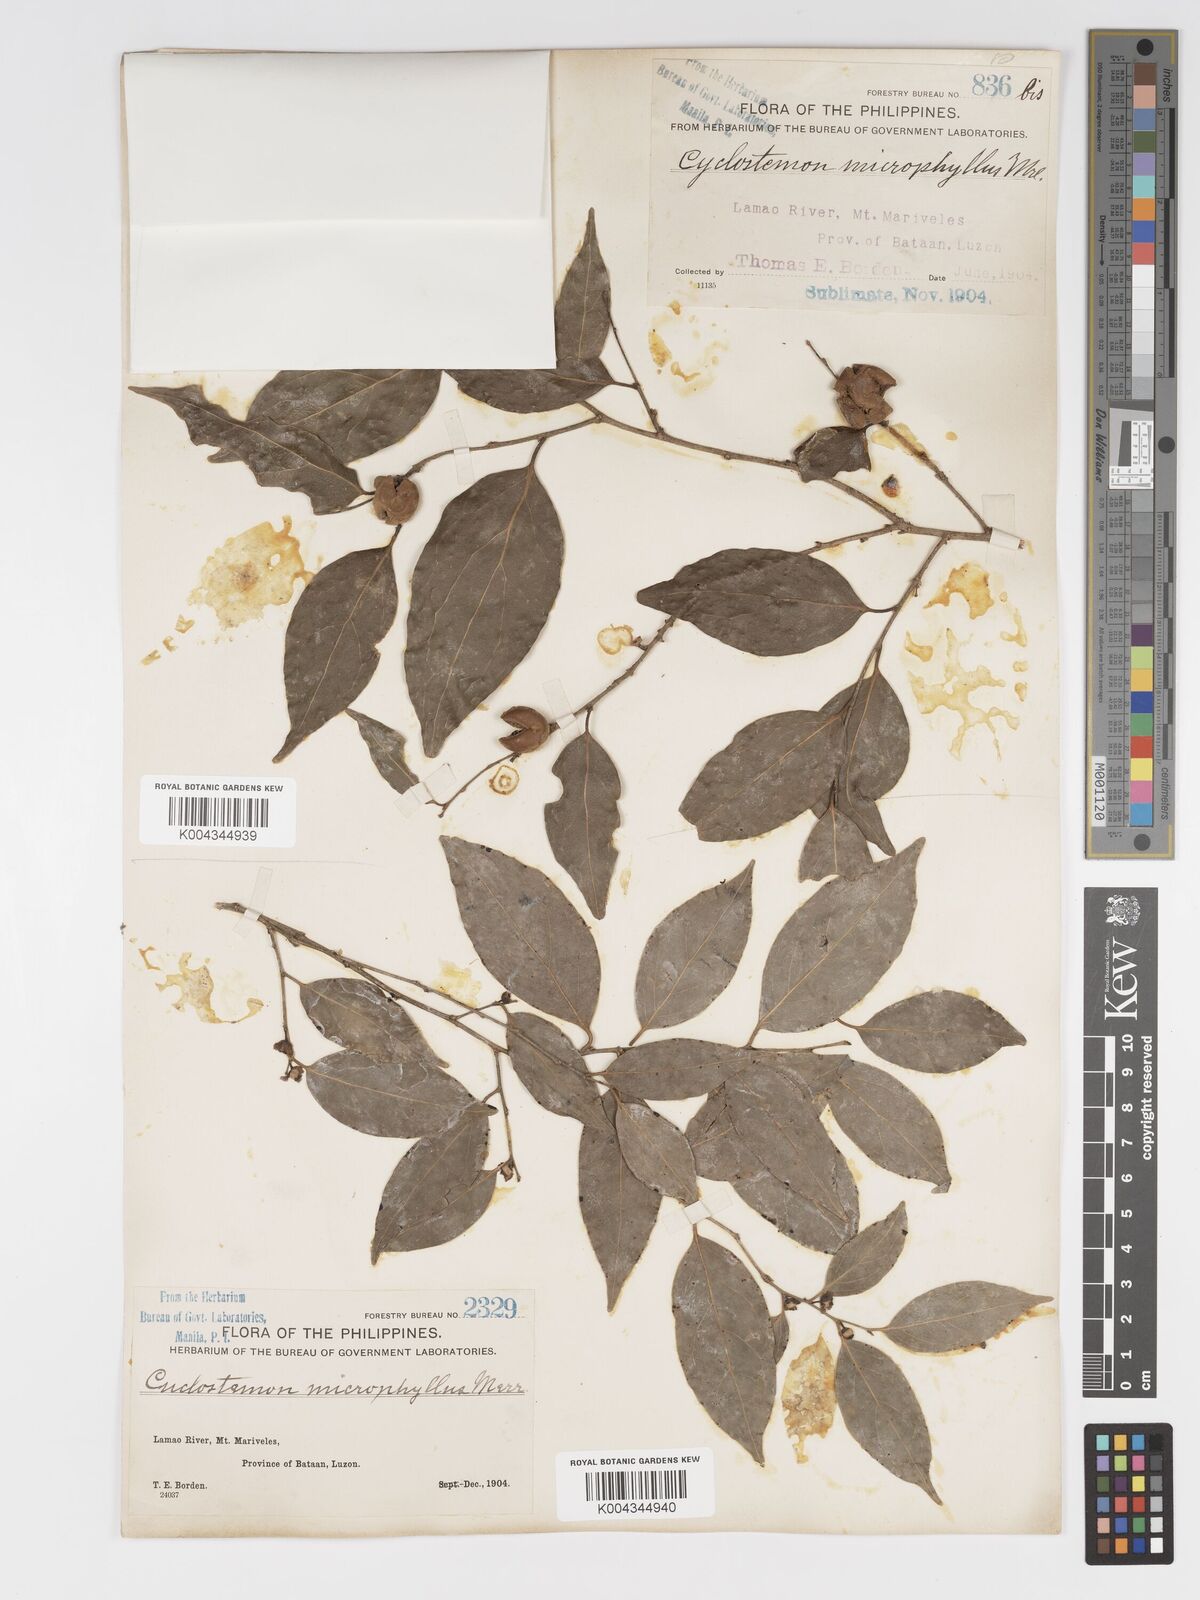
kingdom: Plantae
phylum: Tracheophyta
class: Magnoliopsida
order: Malpighiales
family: Putranjivaceae
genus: Drypetes
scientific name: Drypetes microphylla
